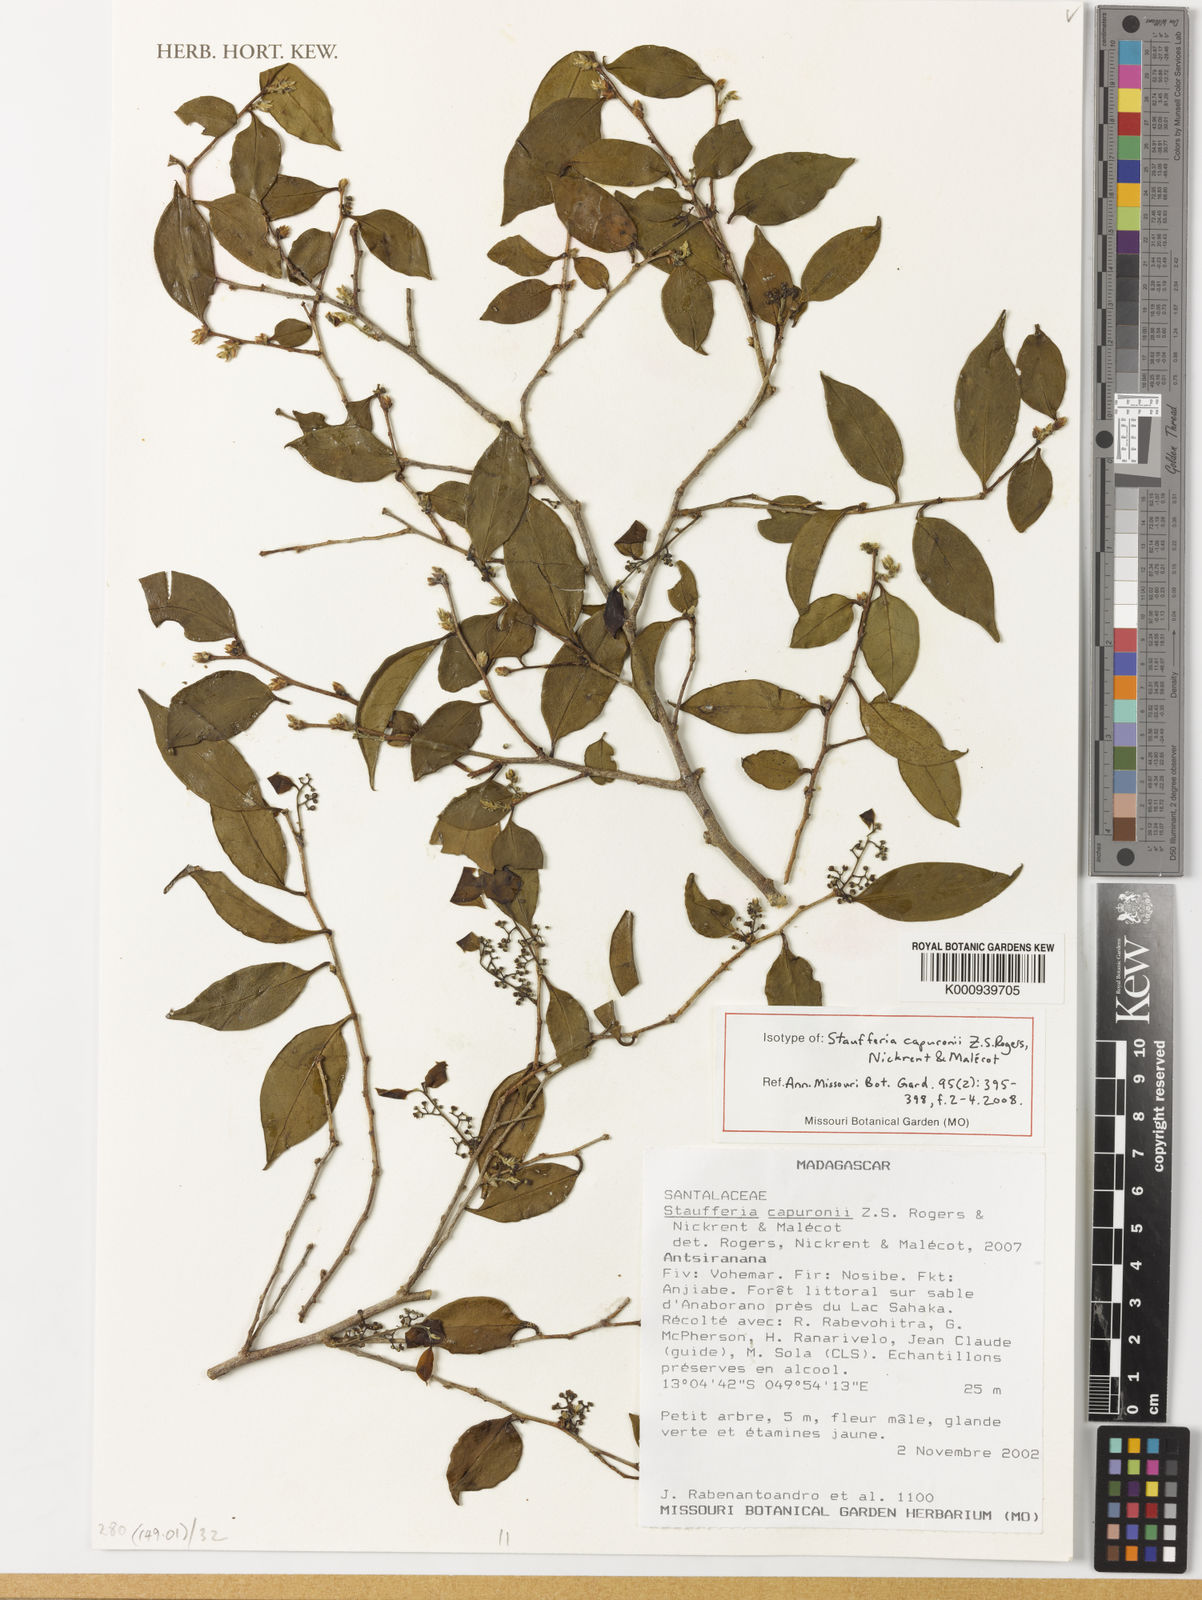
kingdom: Plantae
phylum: Tracheophyta
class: Magnoliopsida
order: Santalales
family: Cervantesiaceae
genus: Staufferia
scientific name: Staufferia
